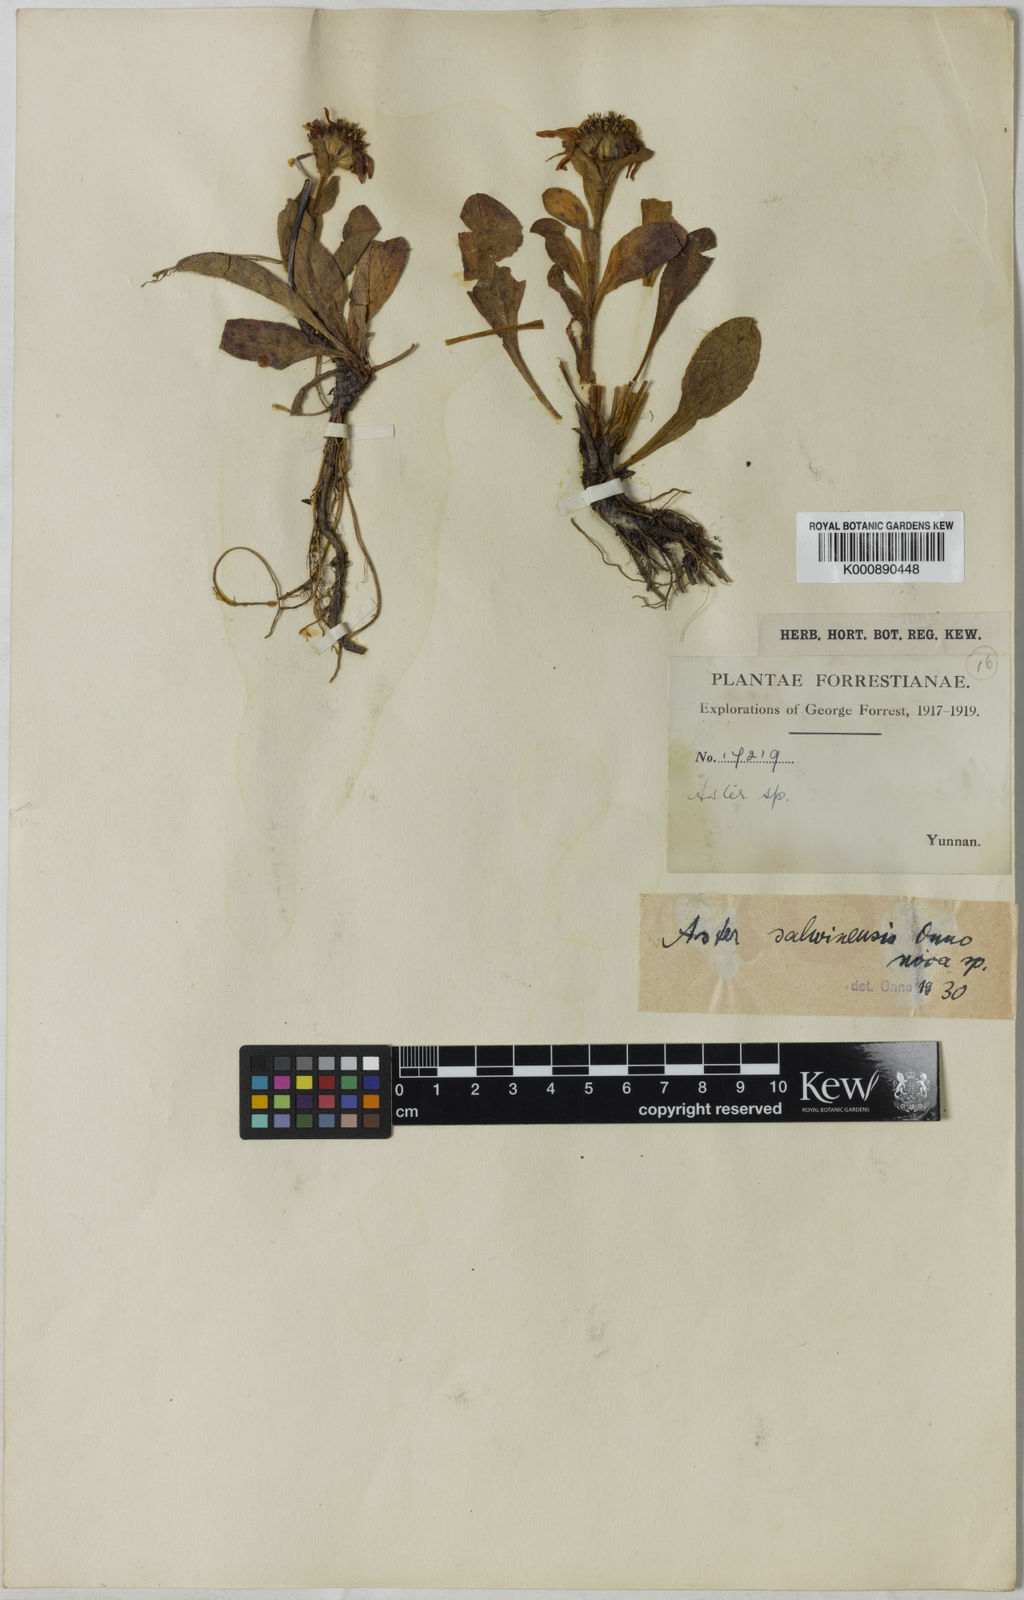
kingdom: Plantae
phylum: Tracheophyta
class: Magnoliopsida
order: Asterales
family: Asteraceae
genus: Tibetiodes
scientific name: Tibetiodes salwinensis
